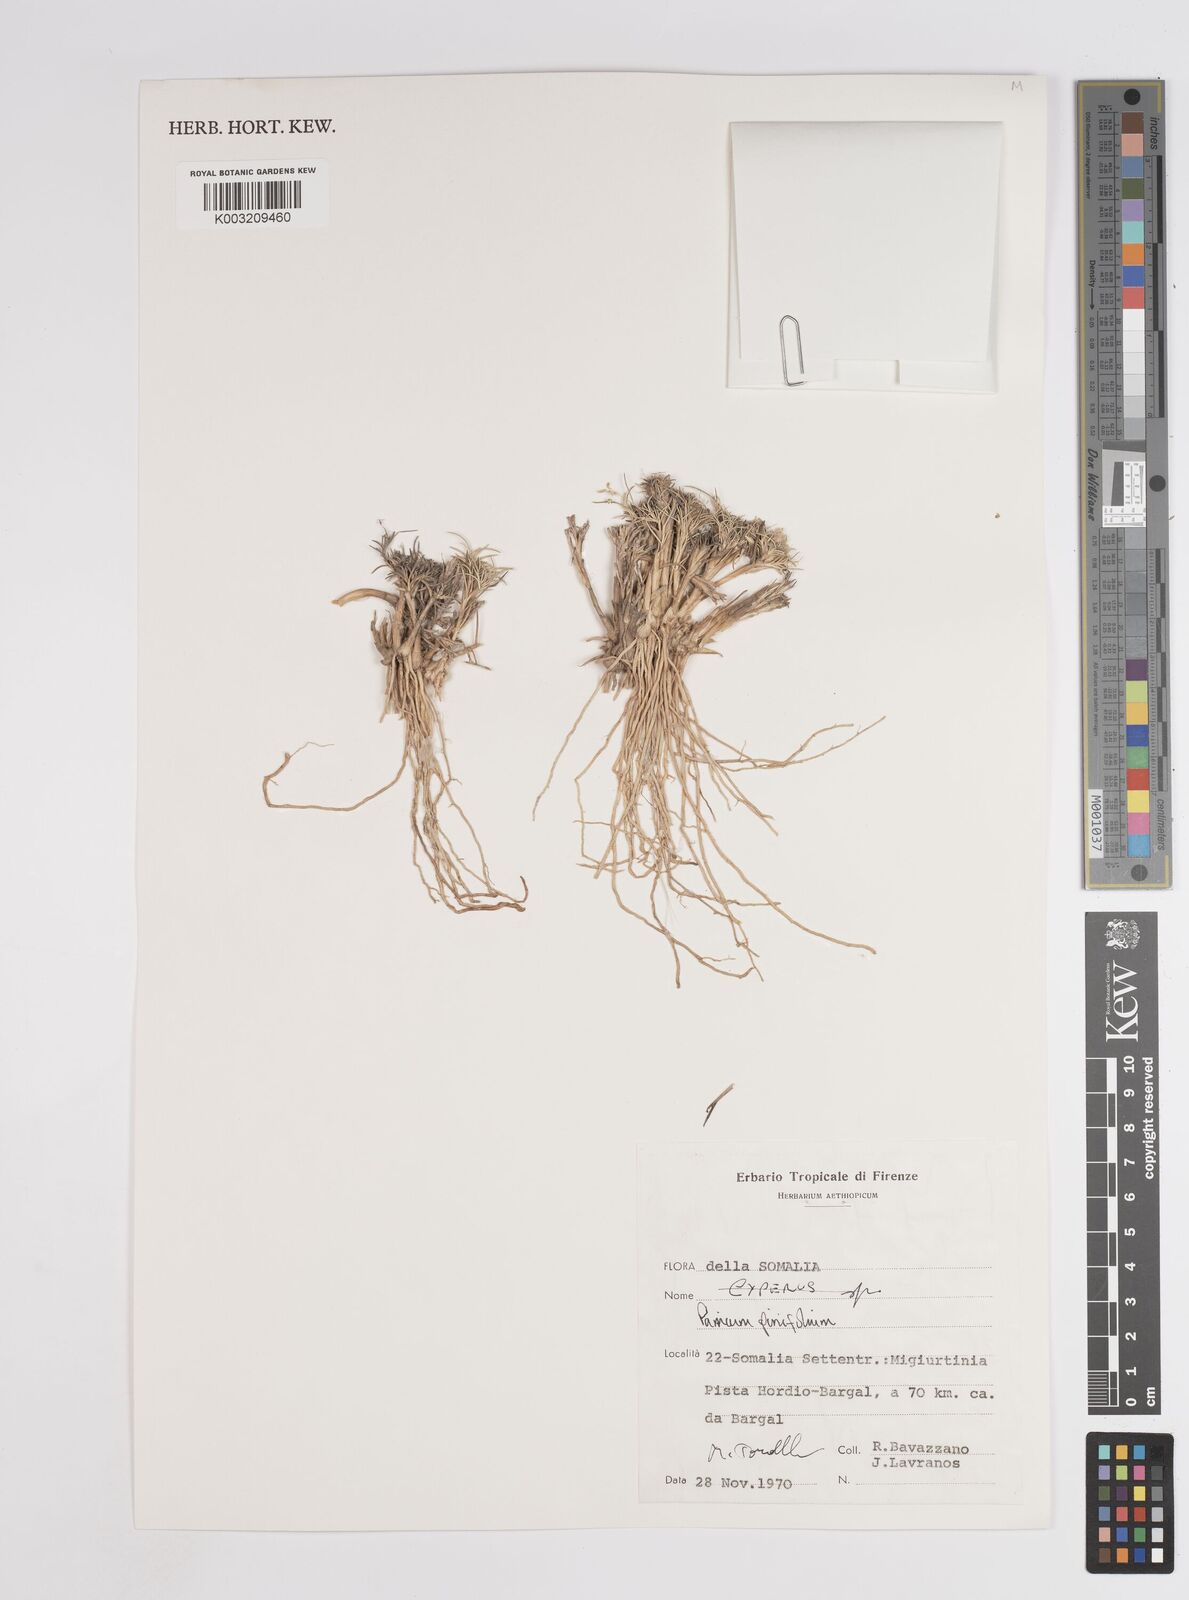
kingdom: Plantae
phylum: Tracheophyta
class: Liliopsida
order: Poales
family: Poaceae
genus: Panicum
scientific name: Panicum pinifolium
